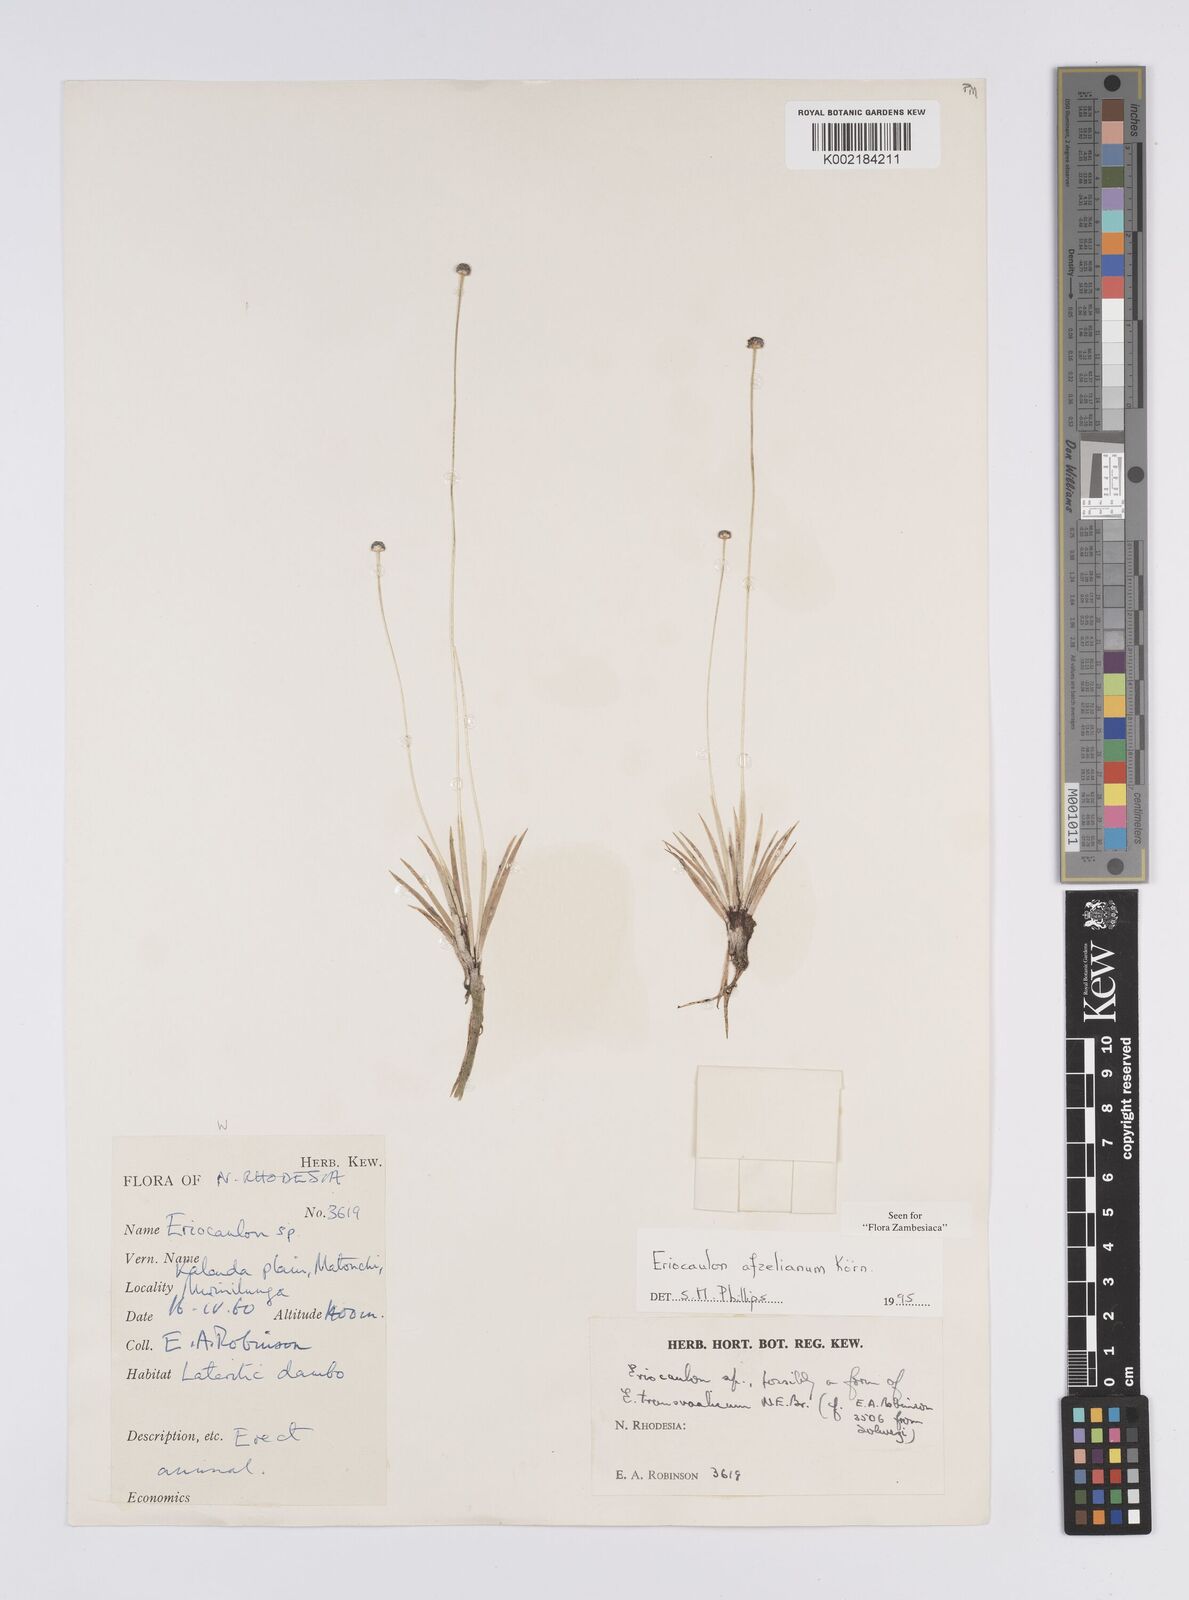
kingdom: Plantae
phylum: Tracheophyta
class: Liliopsida
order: Poales
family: Eriocaulaceae
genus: Eriocaulon
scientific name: Eriocaulon afzelianum
